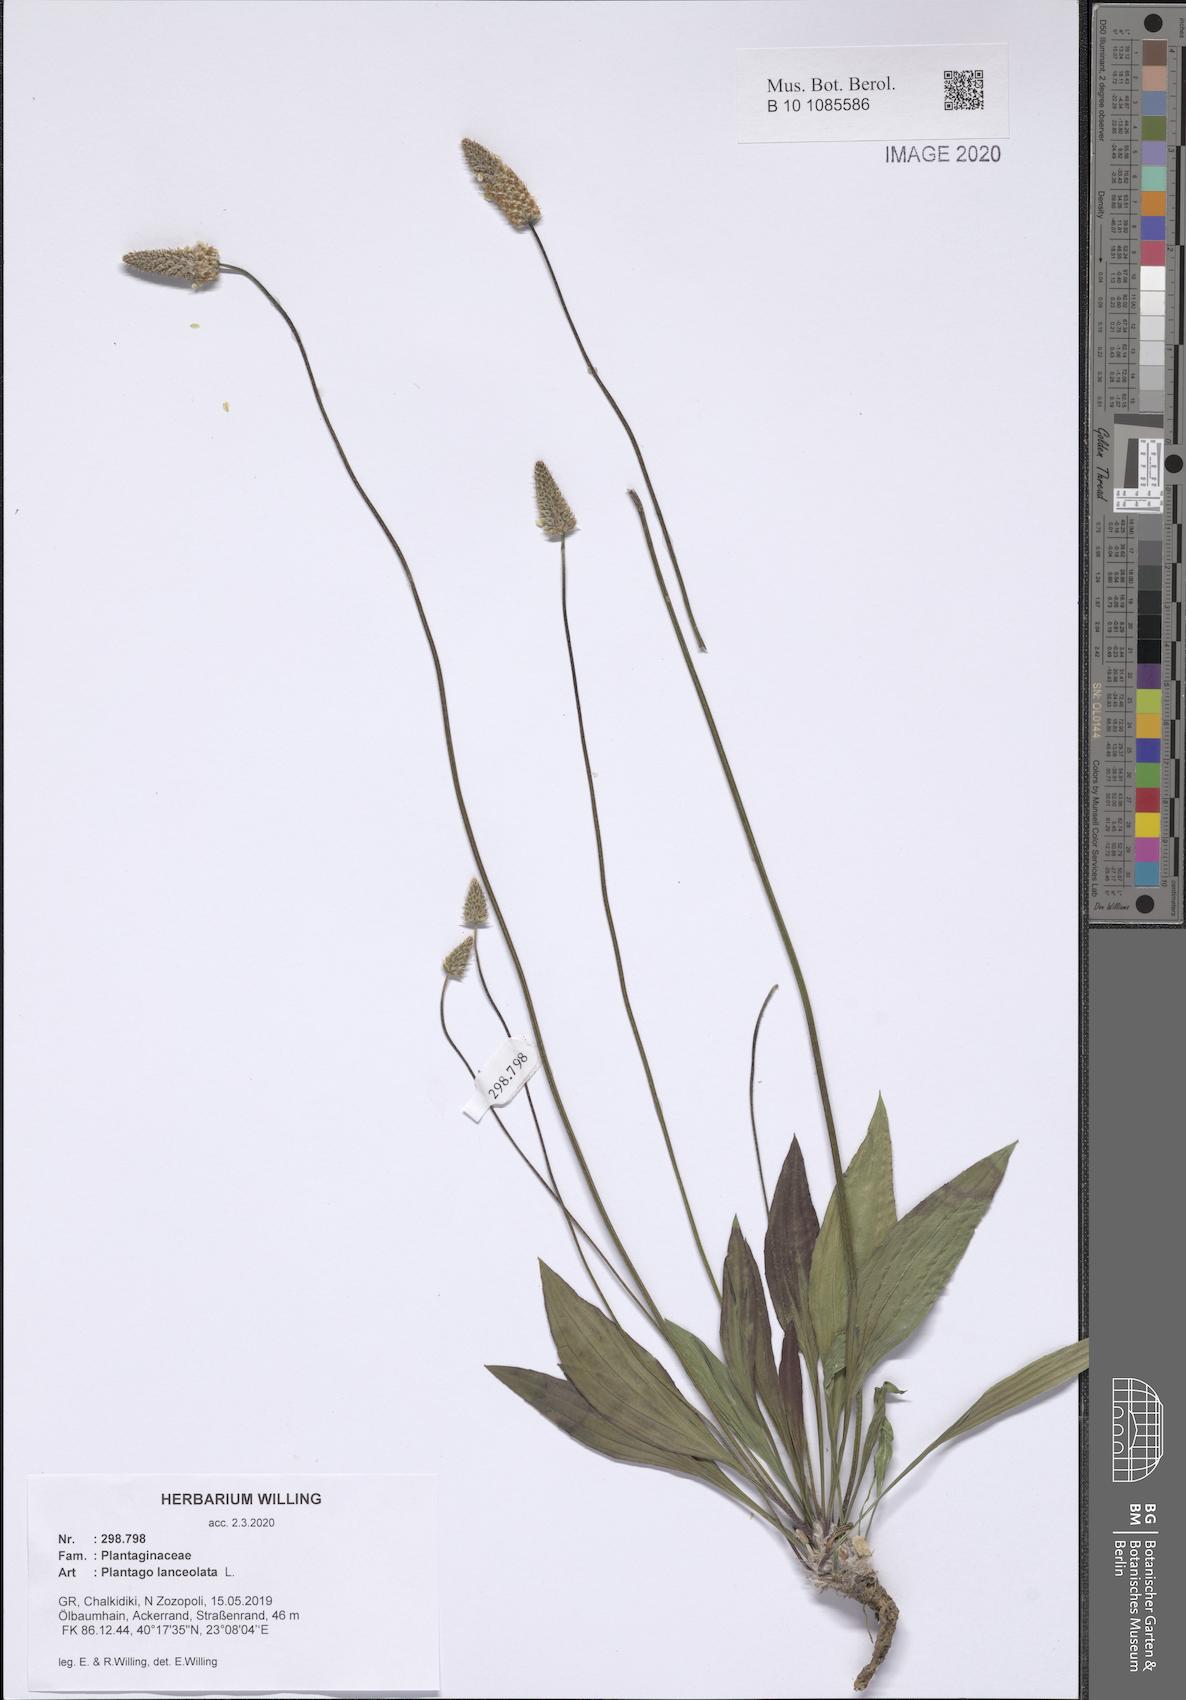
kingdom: Plantae
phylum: Tracheophyta
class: Magnoliopsida
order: Lamiales
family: Plantaginaceae
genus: Plantago
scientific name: Plantago lanceolata
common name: Ribwort plantain
